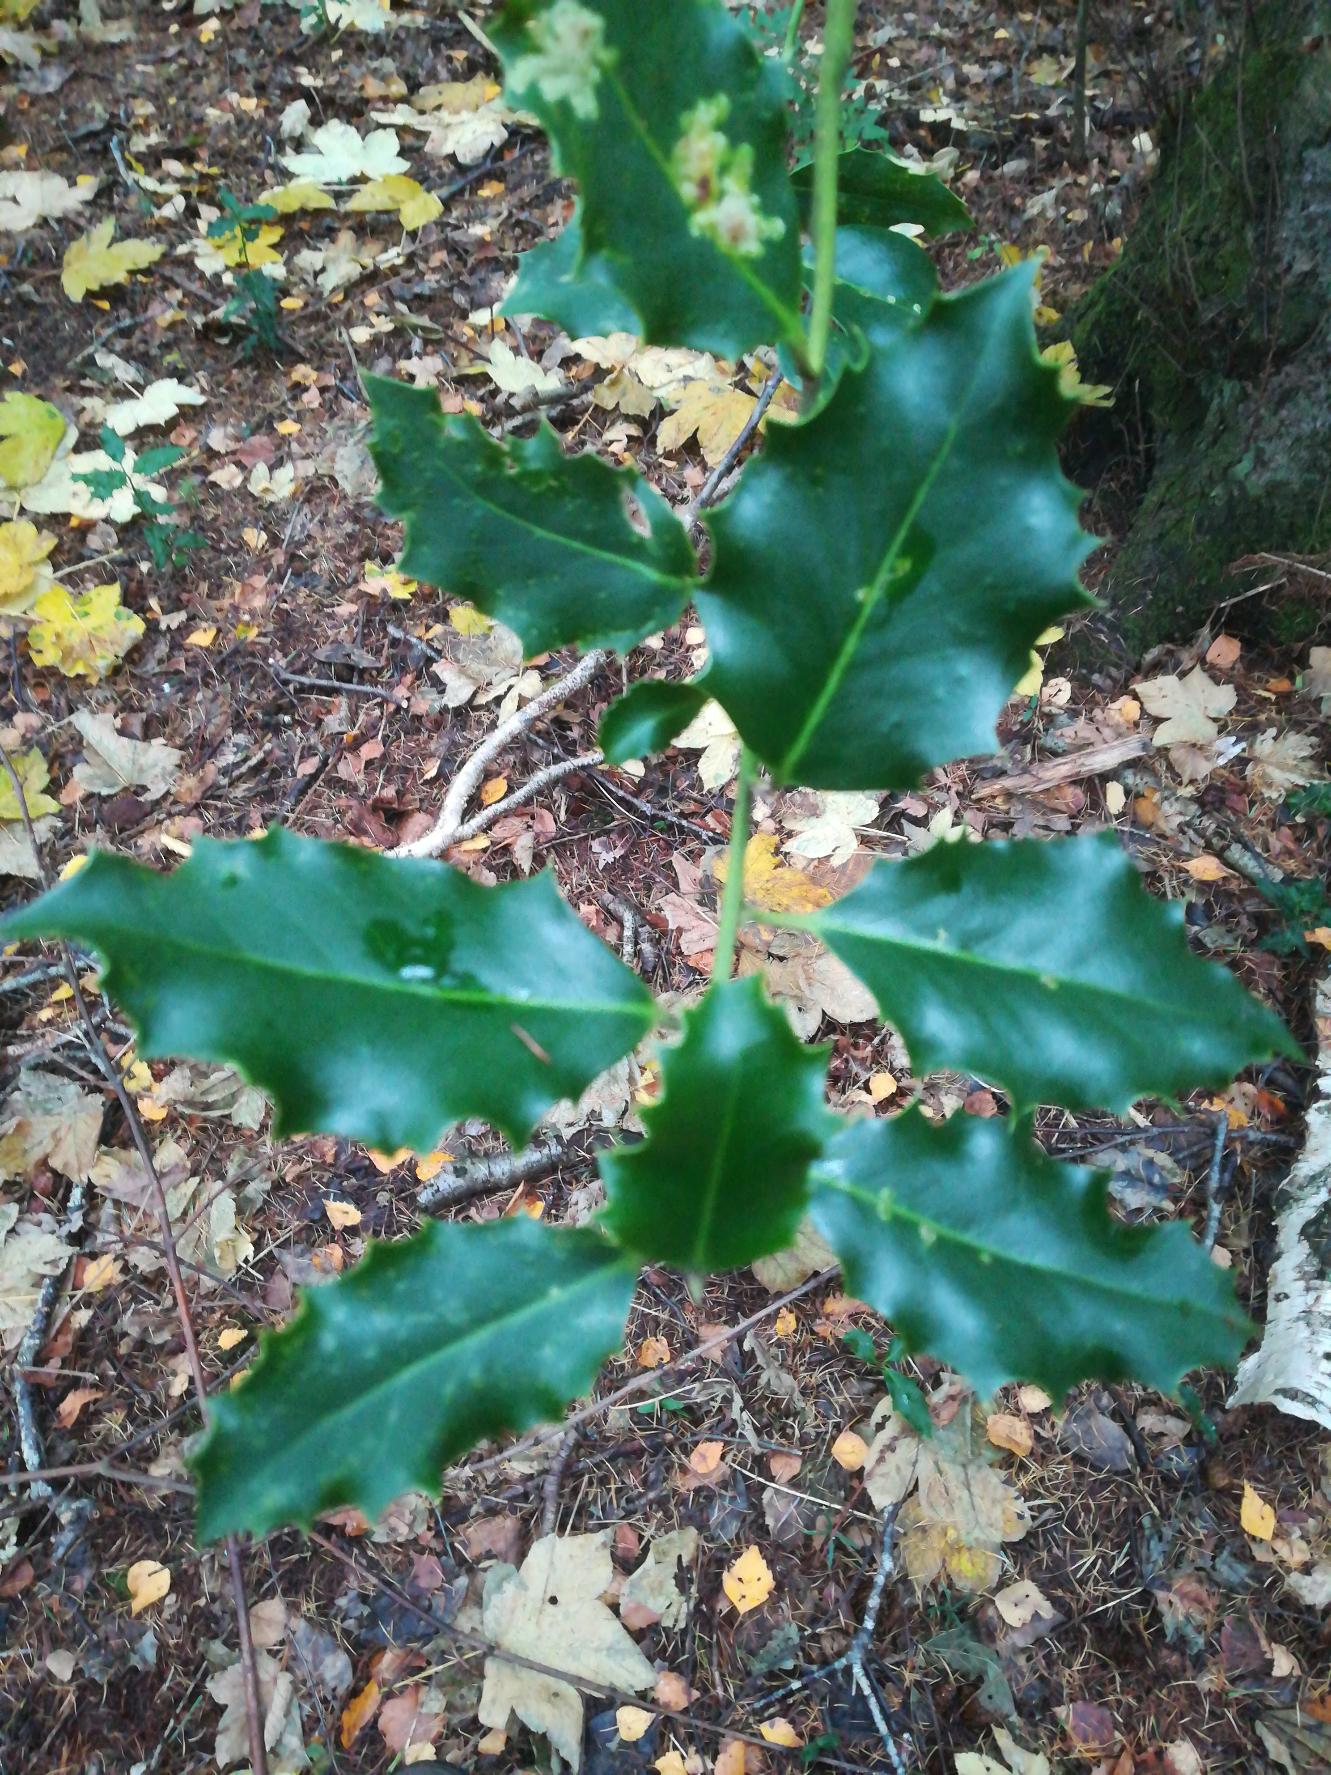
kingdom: Plantae
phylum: Tracheophyta
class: Magnoliopsida
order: Aquifoliales
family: Aquifoliaceae
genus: Ilex
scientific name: Ilex aquifolium
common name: Kristtorn
